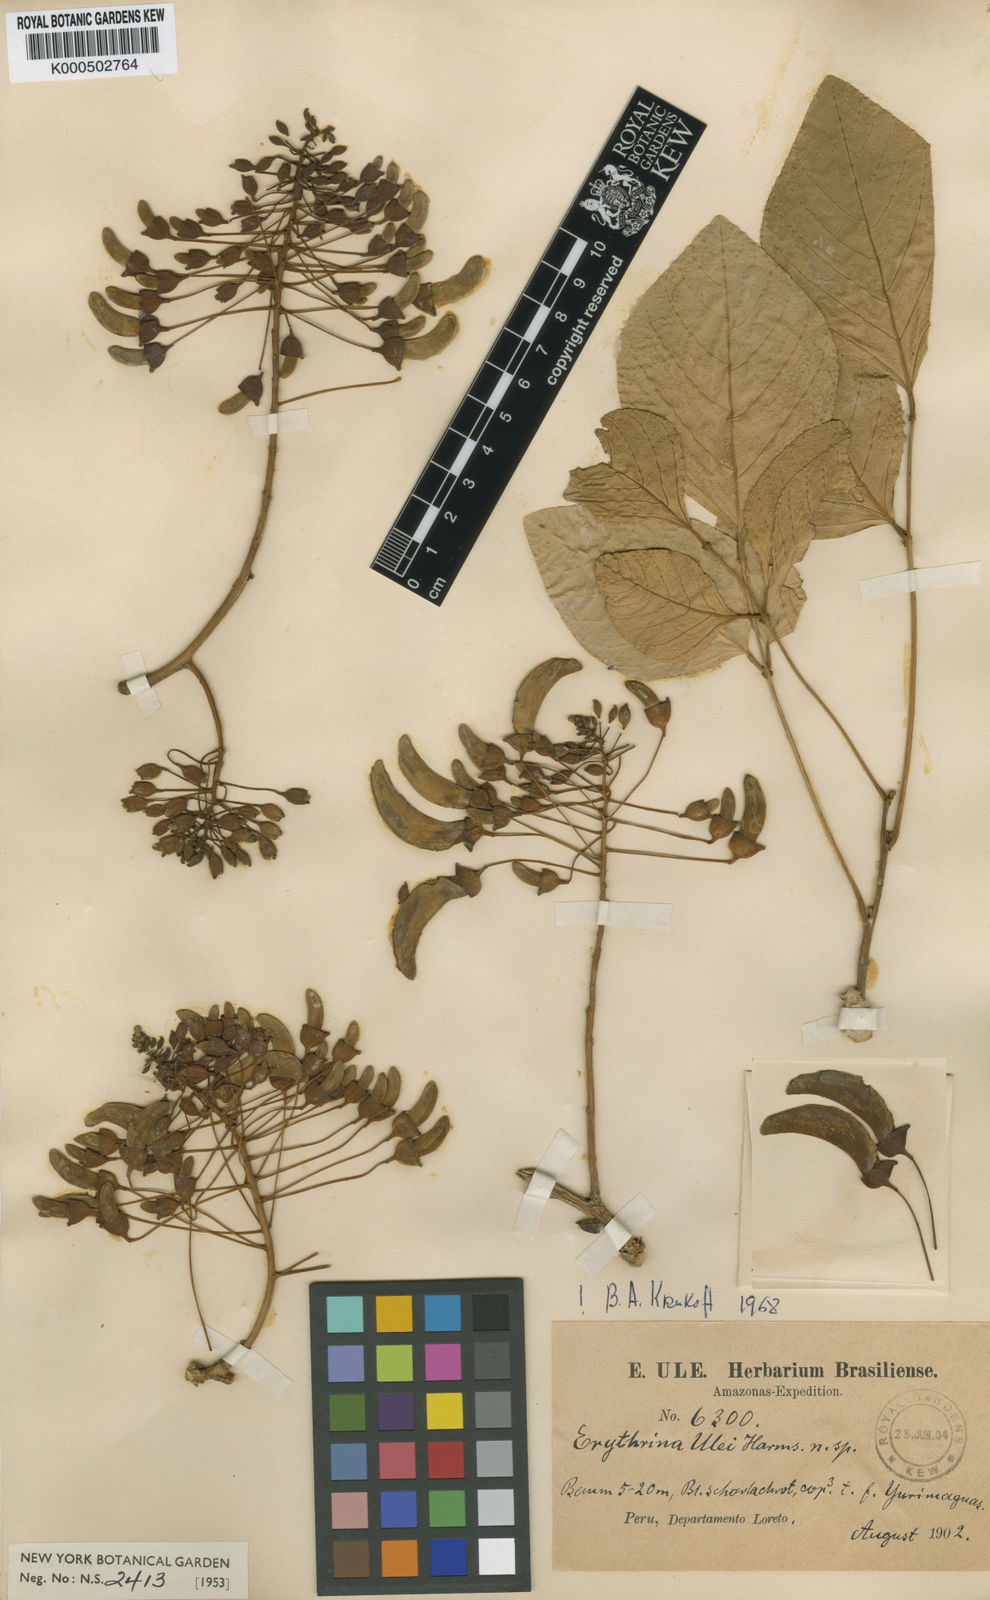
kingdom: Plantae
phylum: Tracheophyta
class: Magnoliopsida
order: Fabales
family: Fabaceae
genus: Erythrina
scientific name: Erythrina ulei
